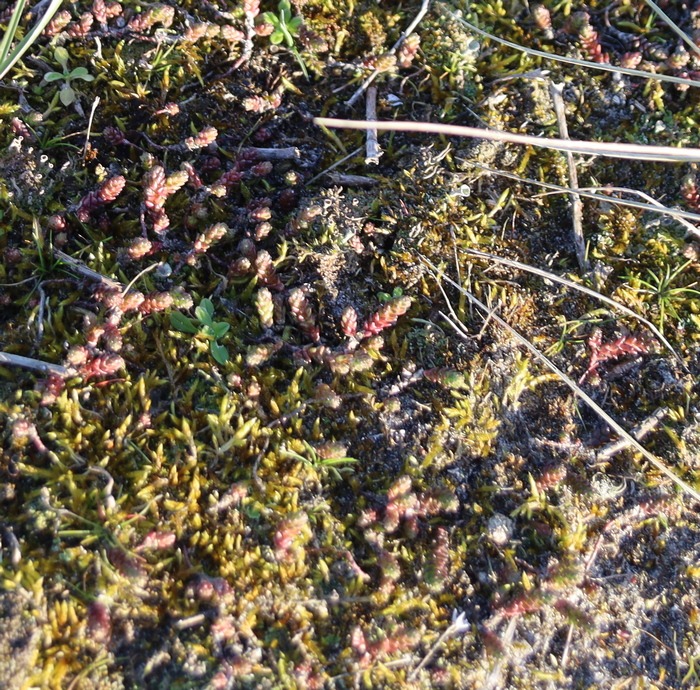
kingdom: Plantae
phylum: Tracheophyta
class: Magnoliopsida
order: Saxifragales
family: Crassulaceae
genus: Sedum
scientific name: Sedum acre
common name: Bidende stenurt
